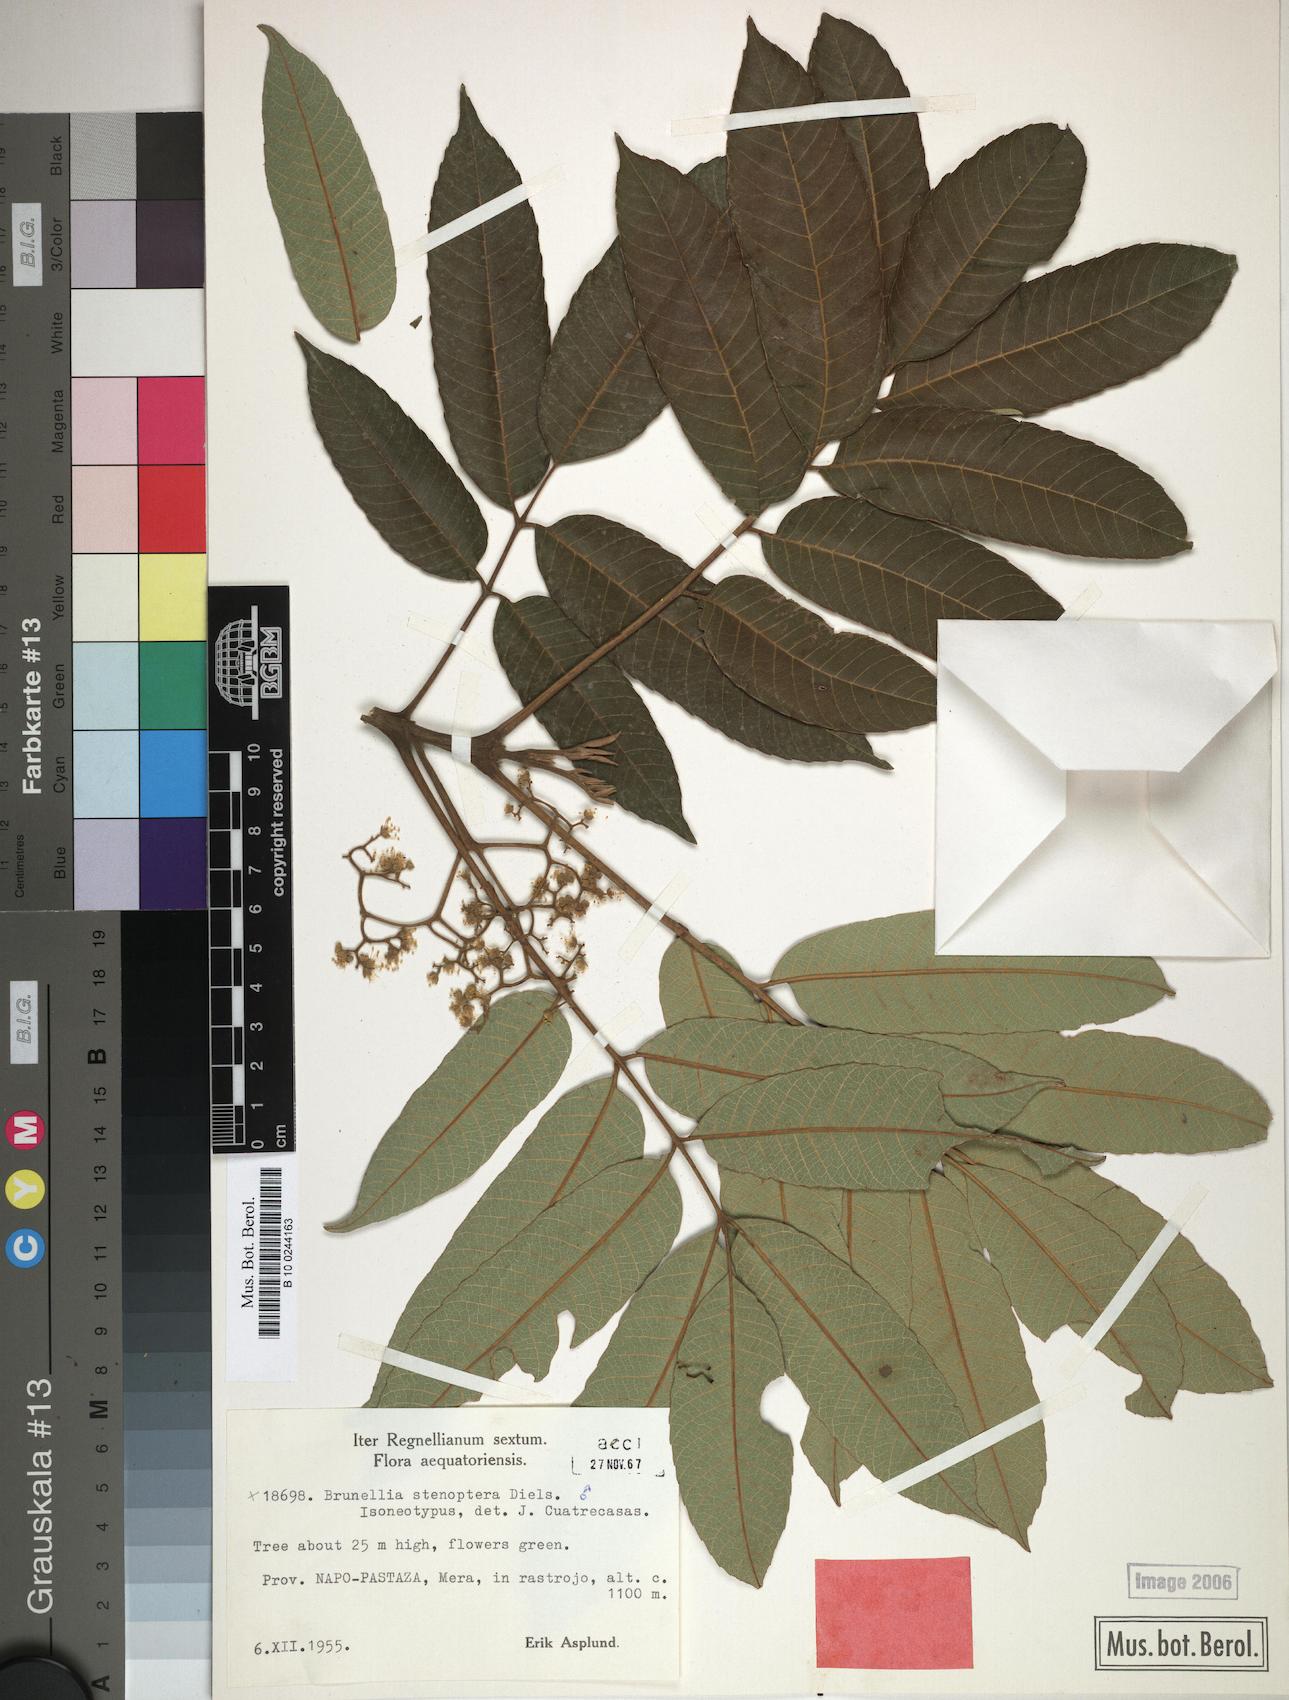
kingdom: Plantae
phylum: Tracheophyta
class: Magnoliopsida
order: Oxalidales
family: Brunelliaceae
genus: Brunellia
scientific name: Brunellia stenoptera
